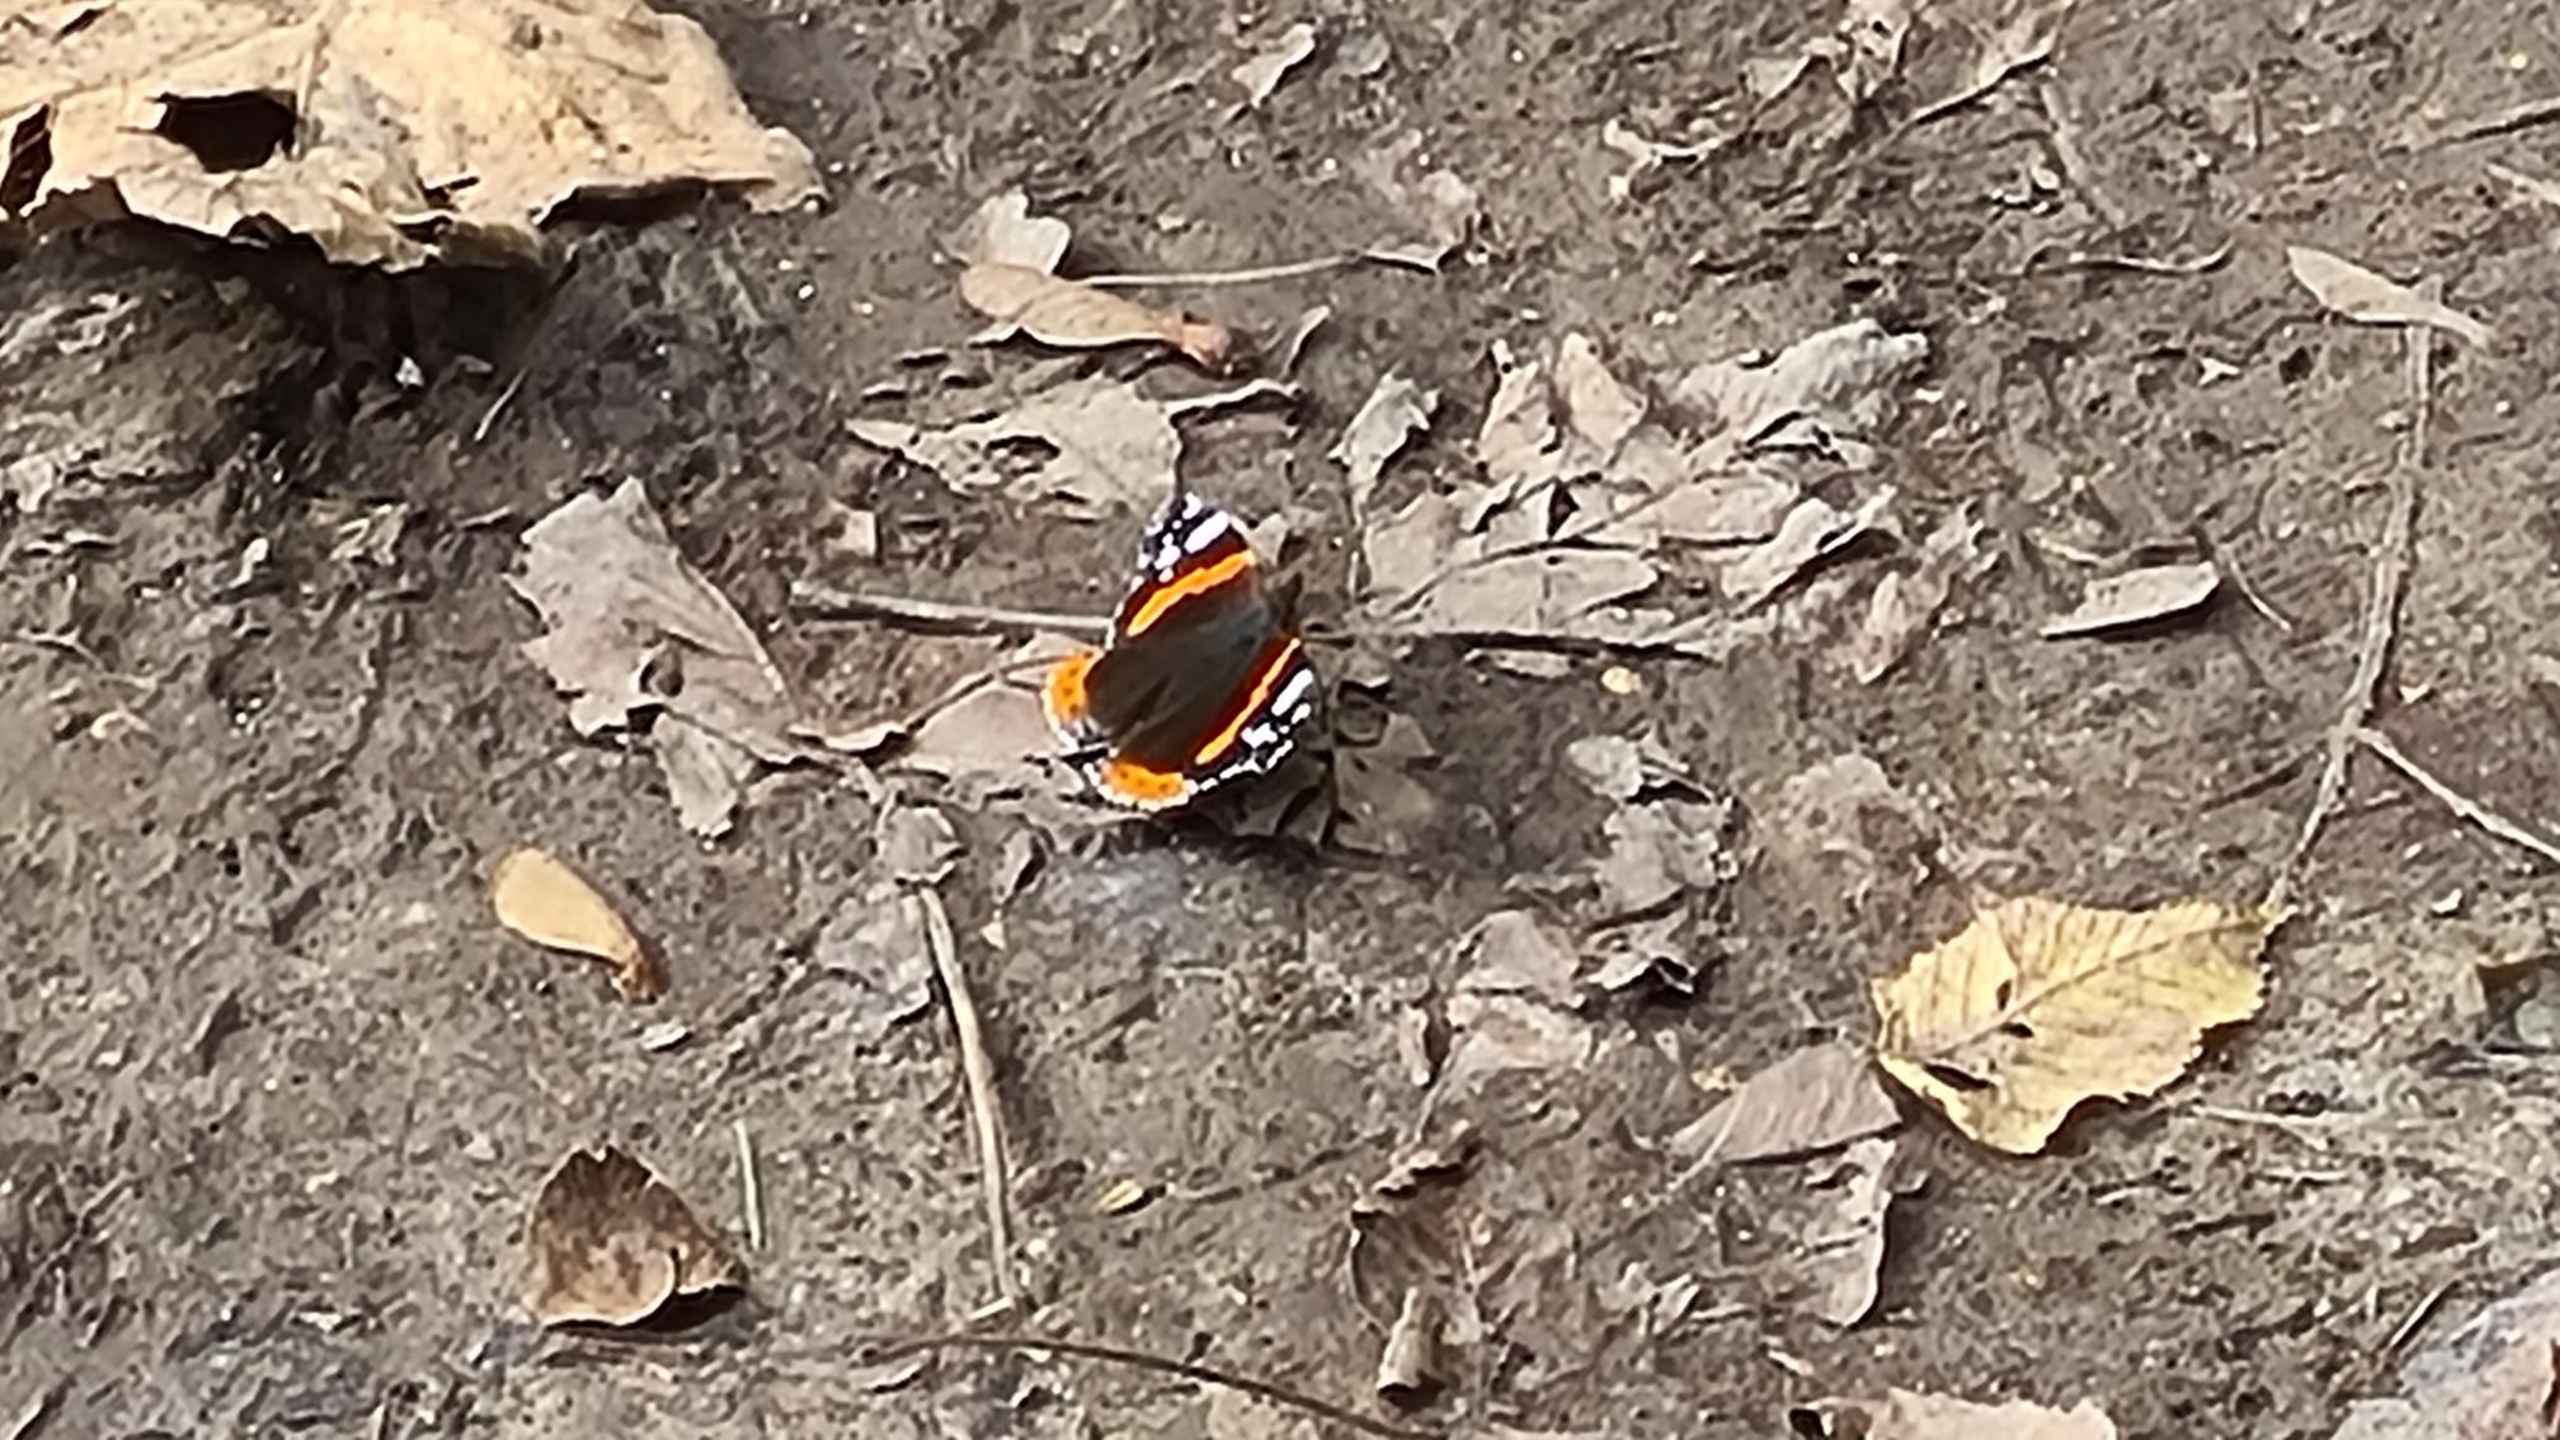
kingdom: Animalia
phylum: Arthropoda
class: Insecta
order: Lepidoptera
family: Nymphalidae
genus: Vanessa
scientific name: Vanessa atalanta
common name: Admiral
